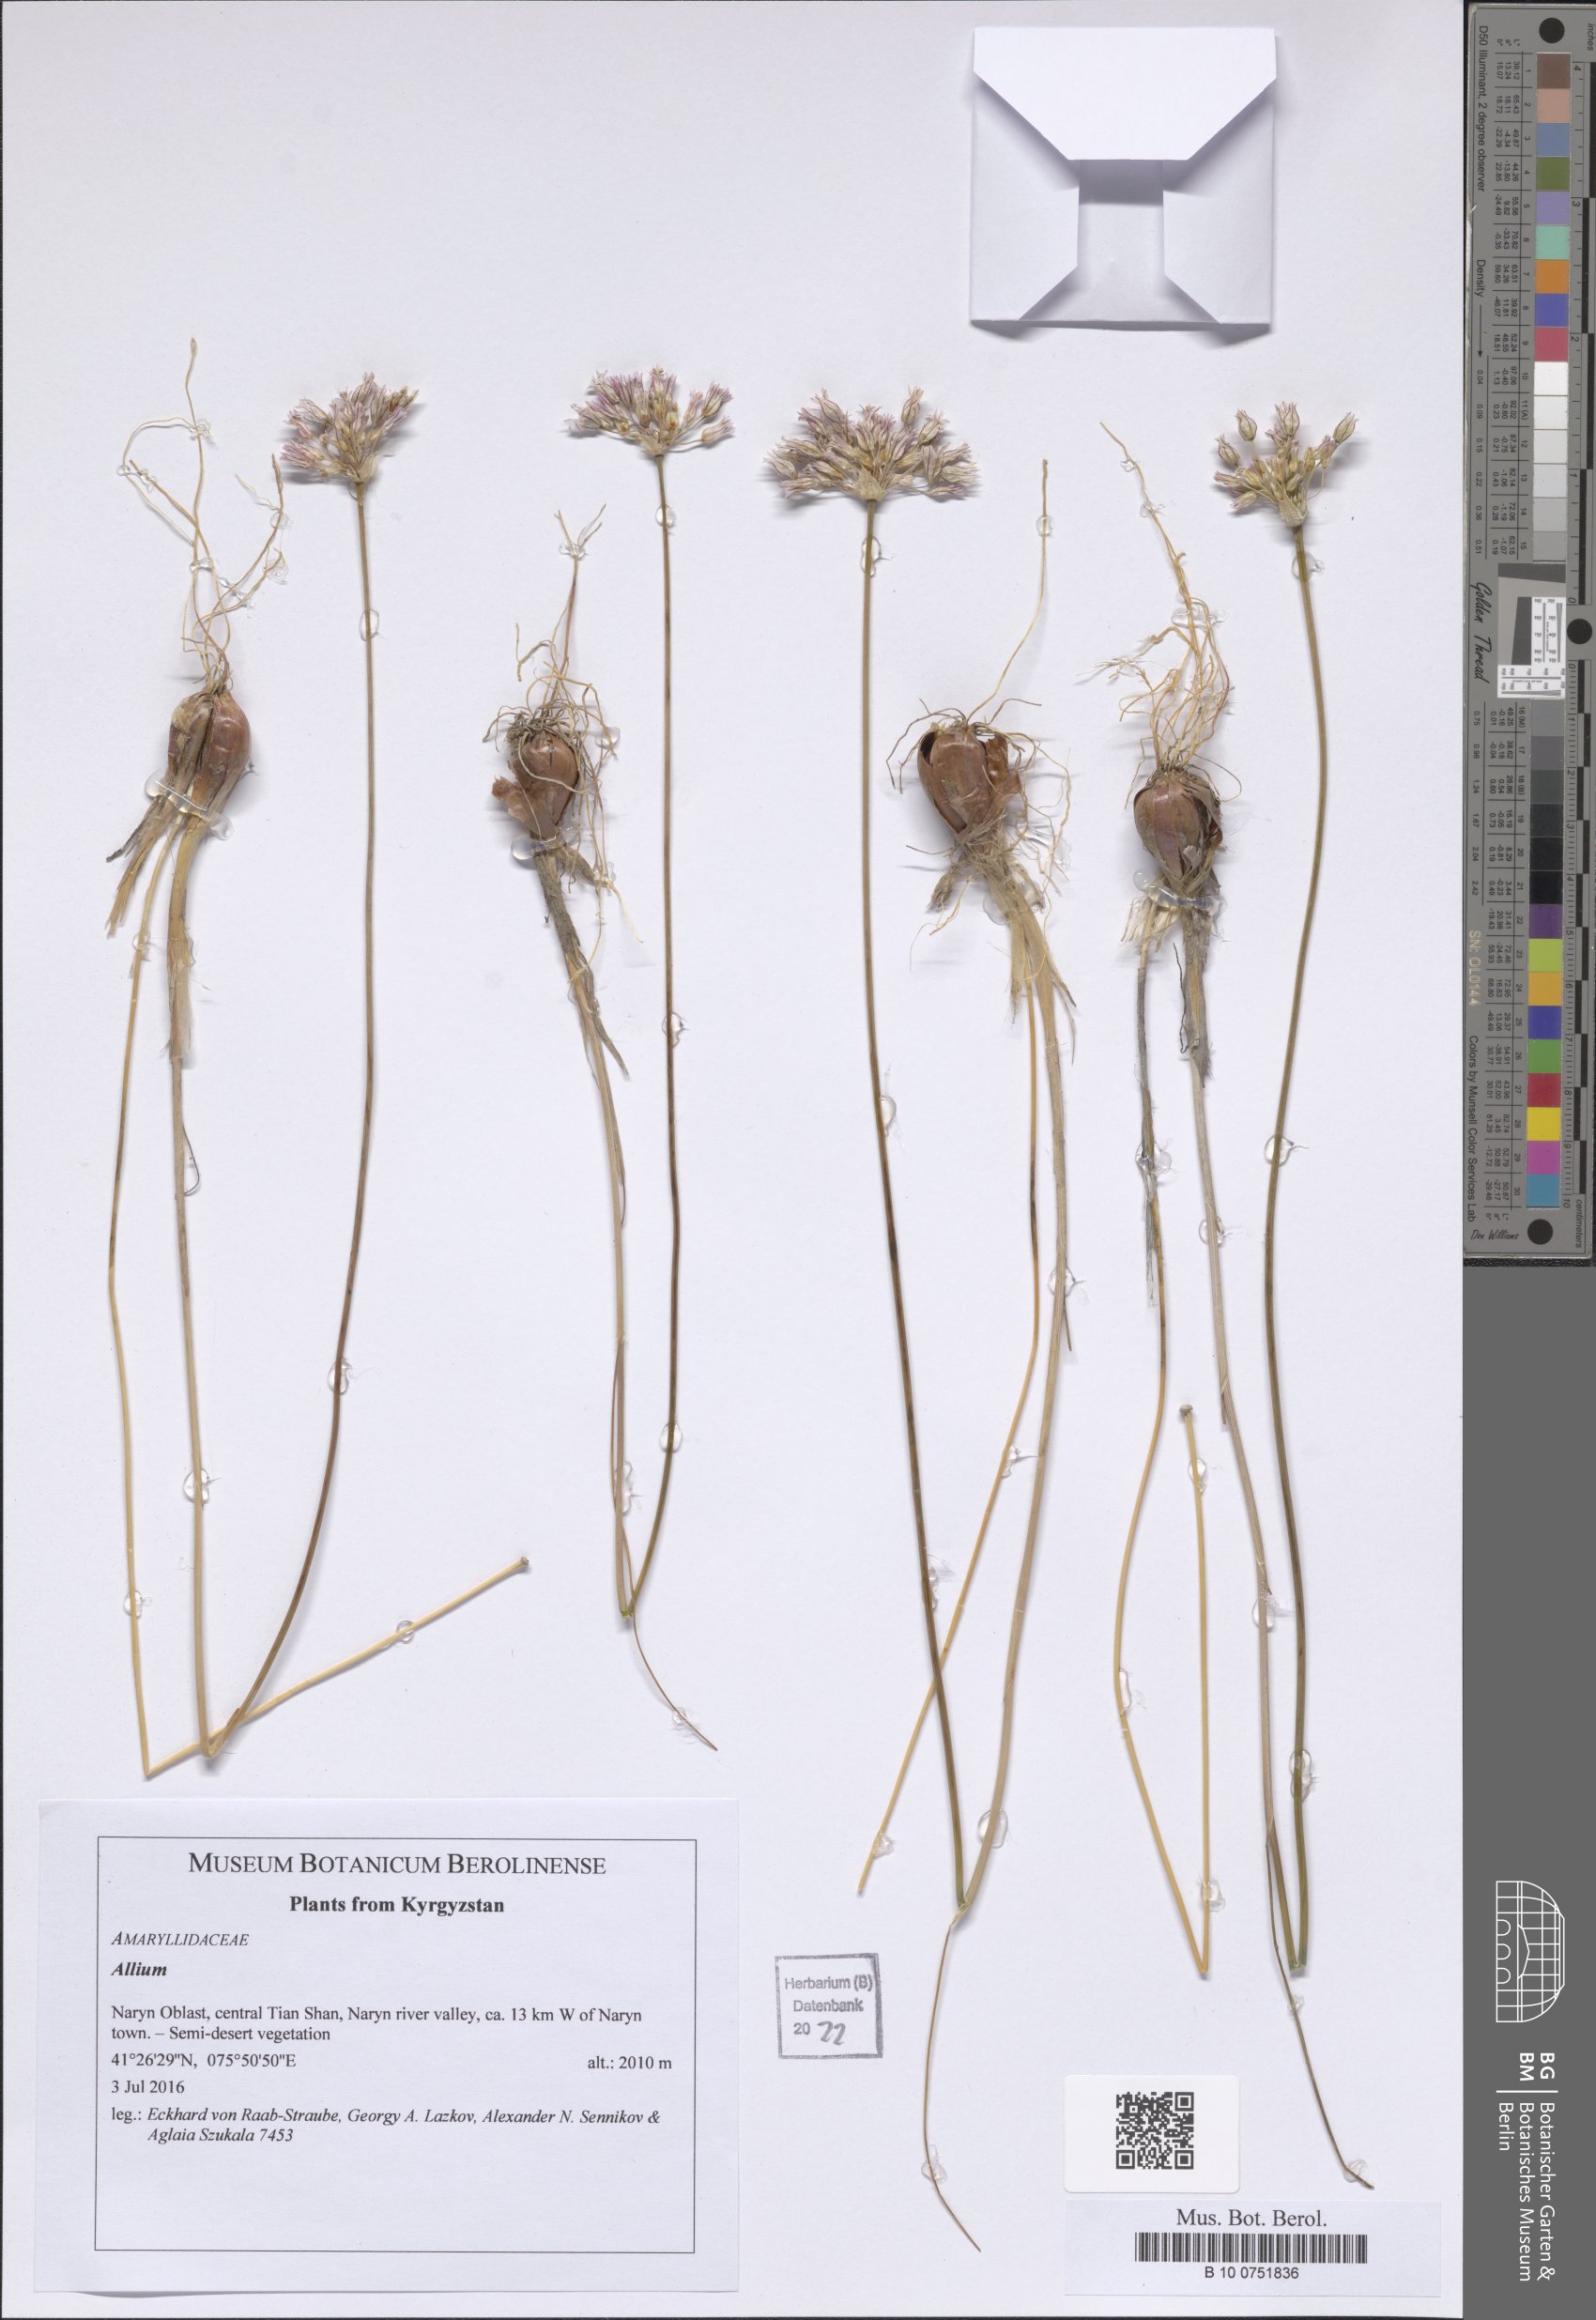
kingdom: Plantae
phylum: Tracheophyta
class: Liliopsida
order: Asparagales
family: Amaryllidaceae
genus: Allium
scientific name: Allium
